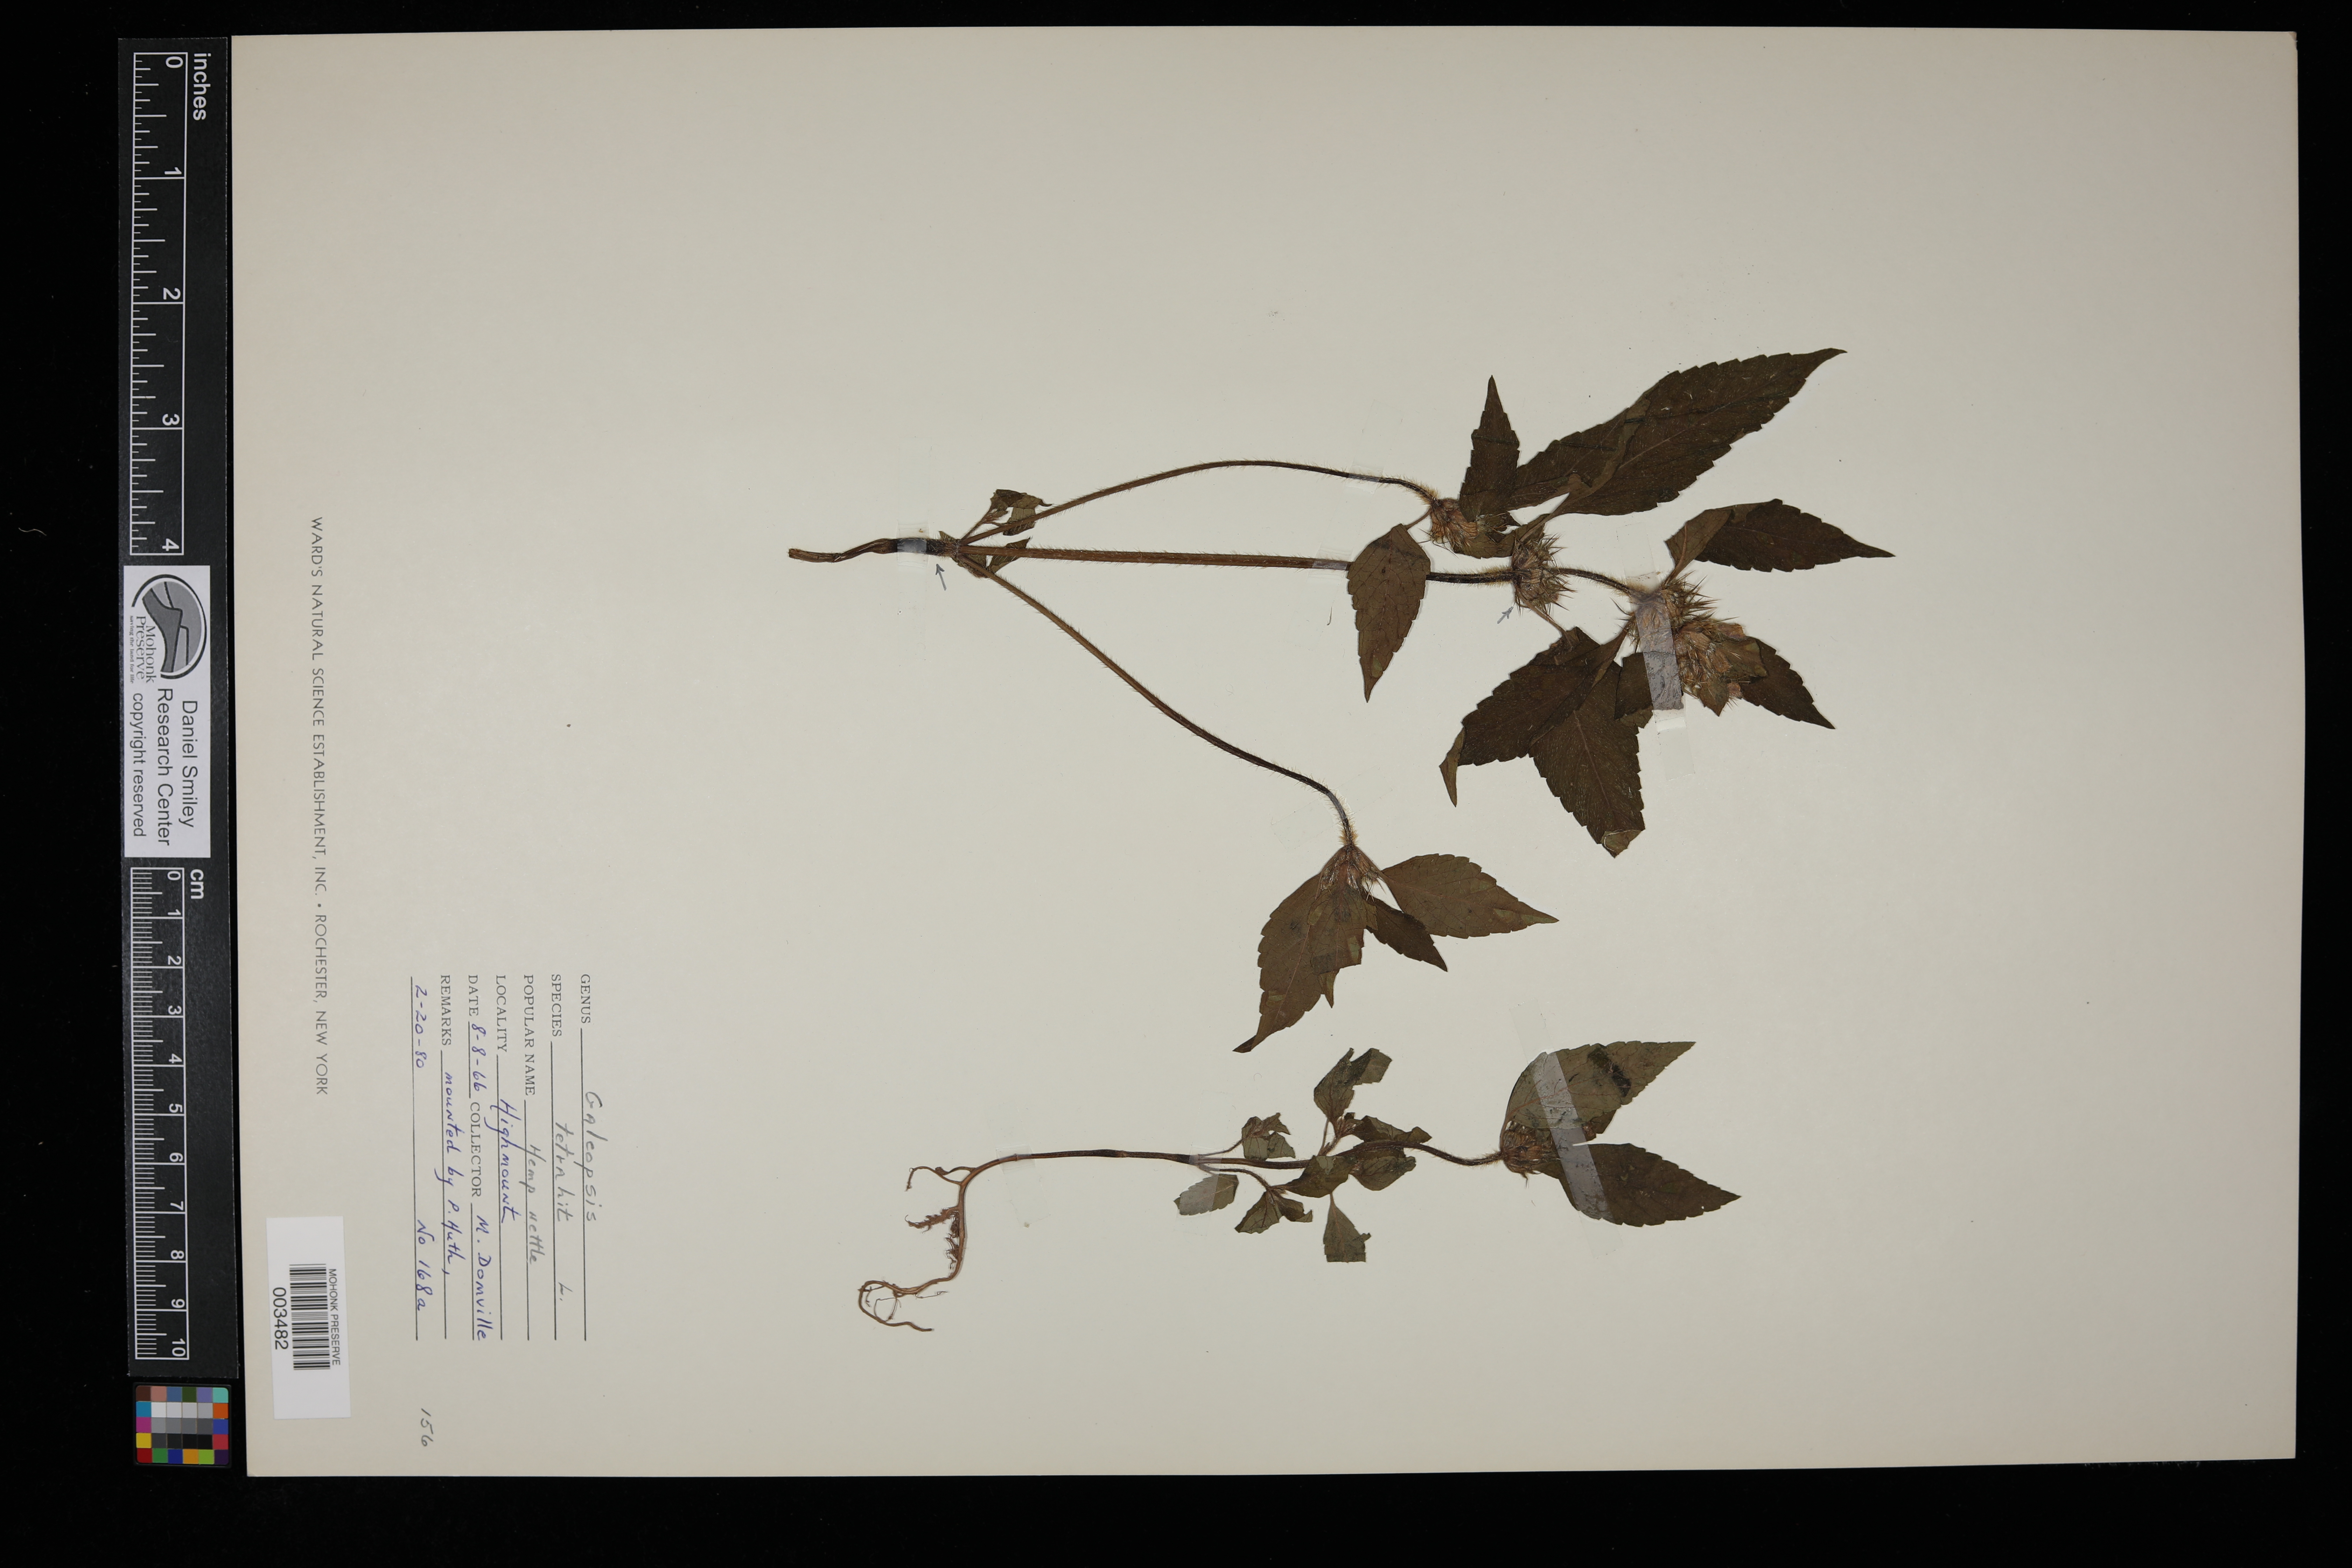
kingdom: Plantae
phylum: Tracheophyta
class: Magnoliopsida
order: Lamiales
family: Lamiaceae
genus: Galeopsis
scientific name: Galeopsis tetrahit
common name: Common hemp-nettle
